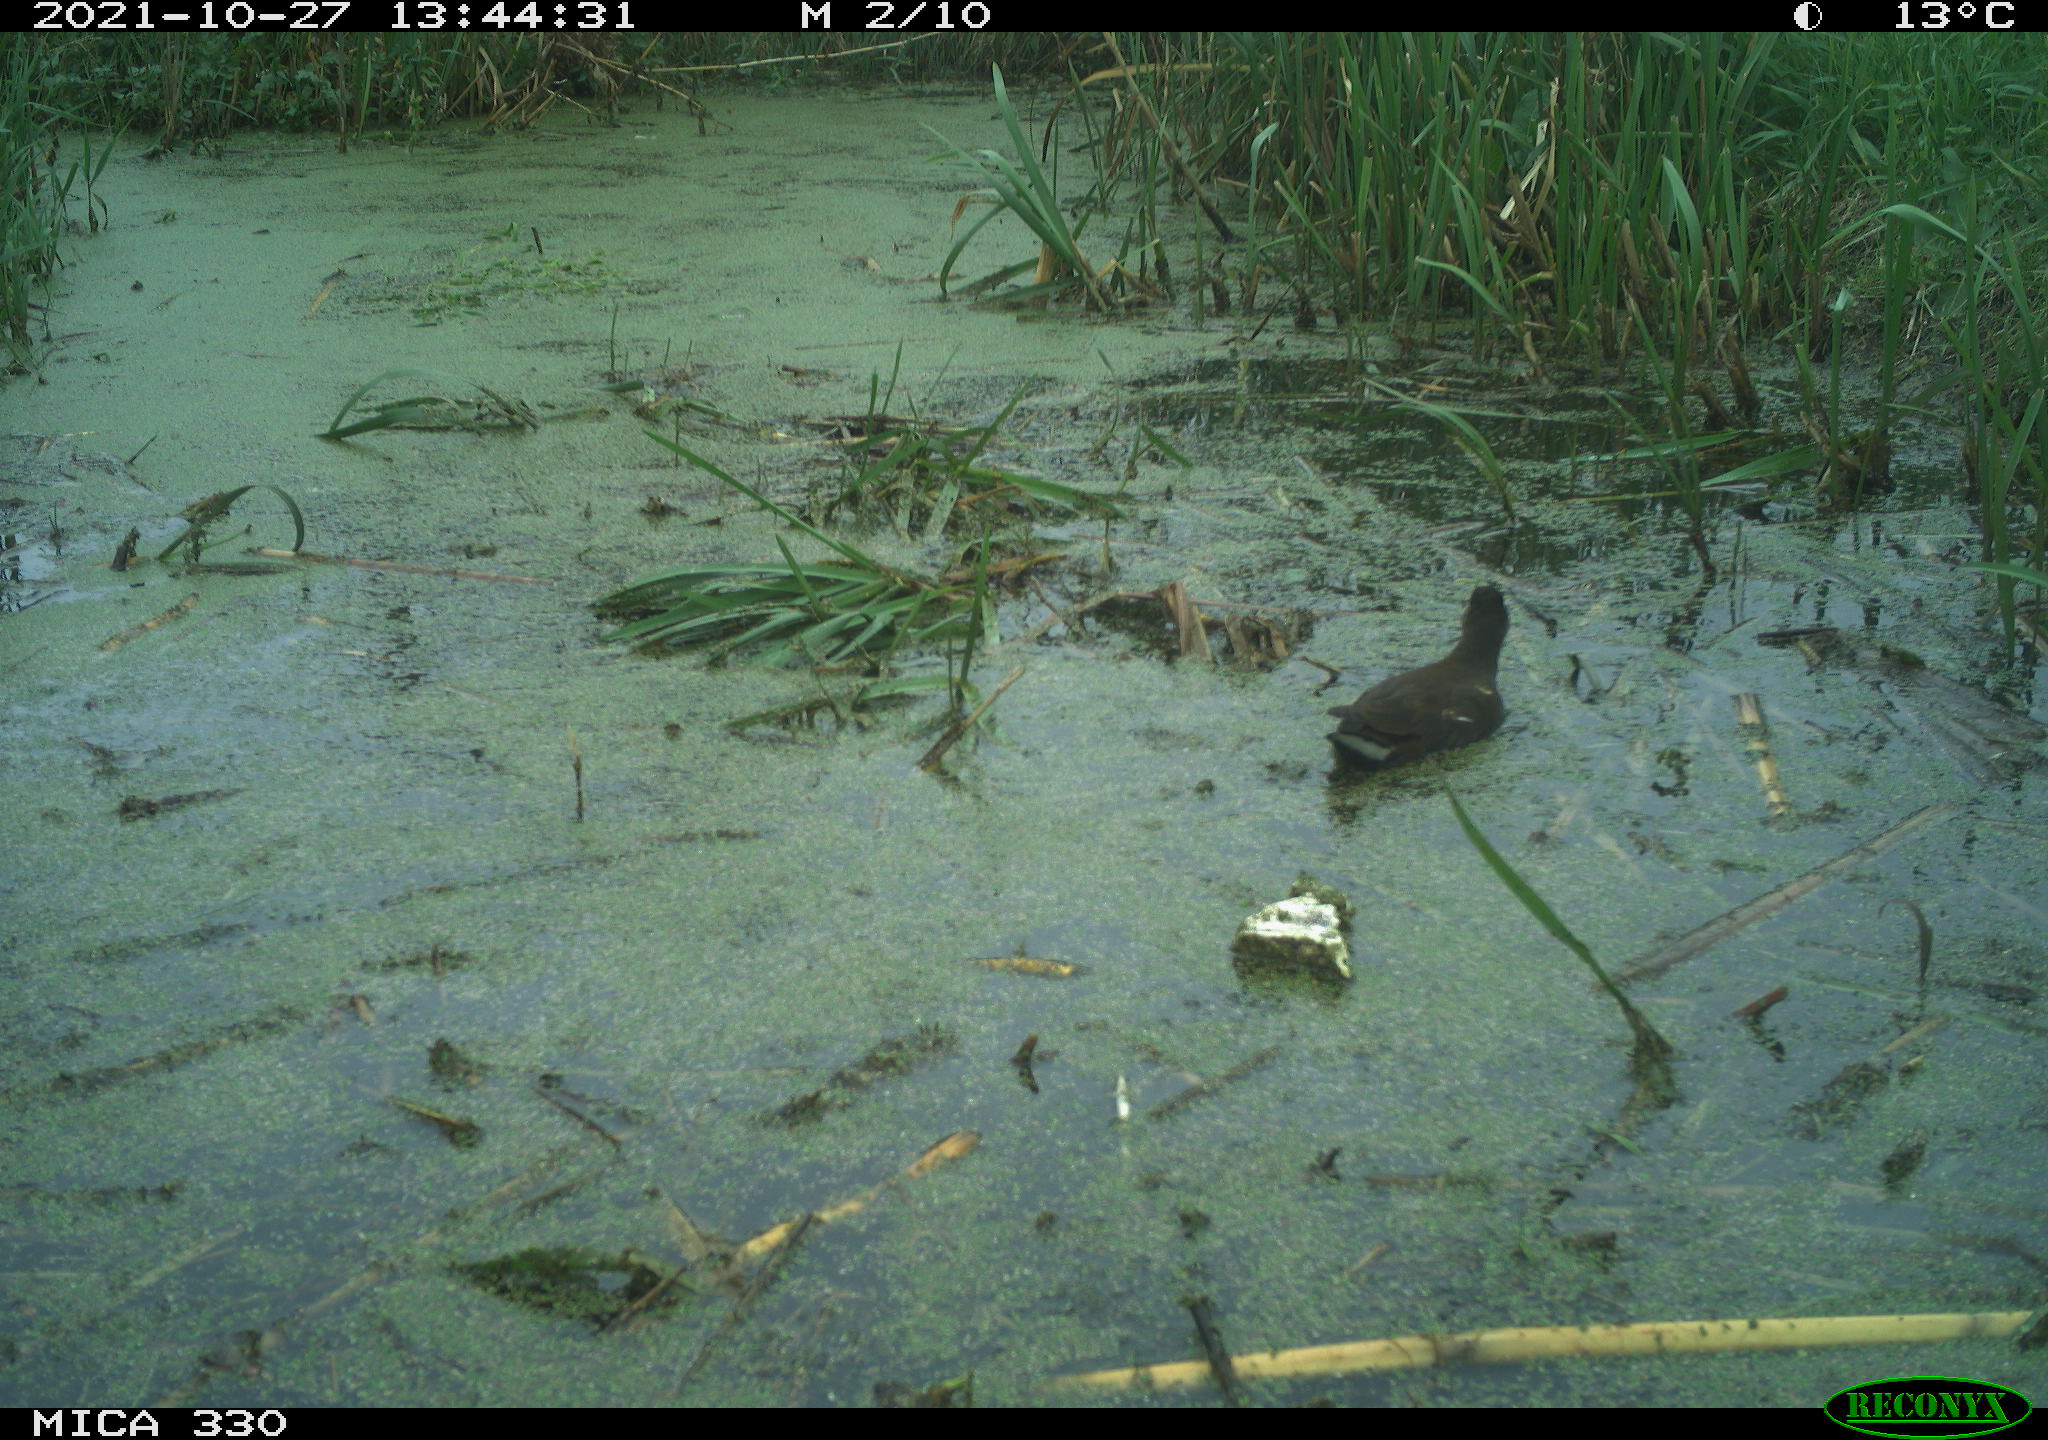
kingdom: Animalia
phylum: Chordata
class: Aves
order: Gruiformes
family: Rallidae
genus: Gallinula
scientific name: Gallinula chloropus
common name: Common moorhen
